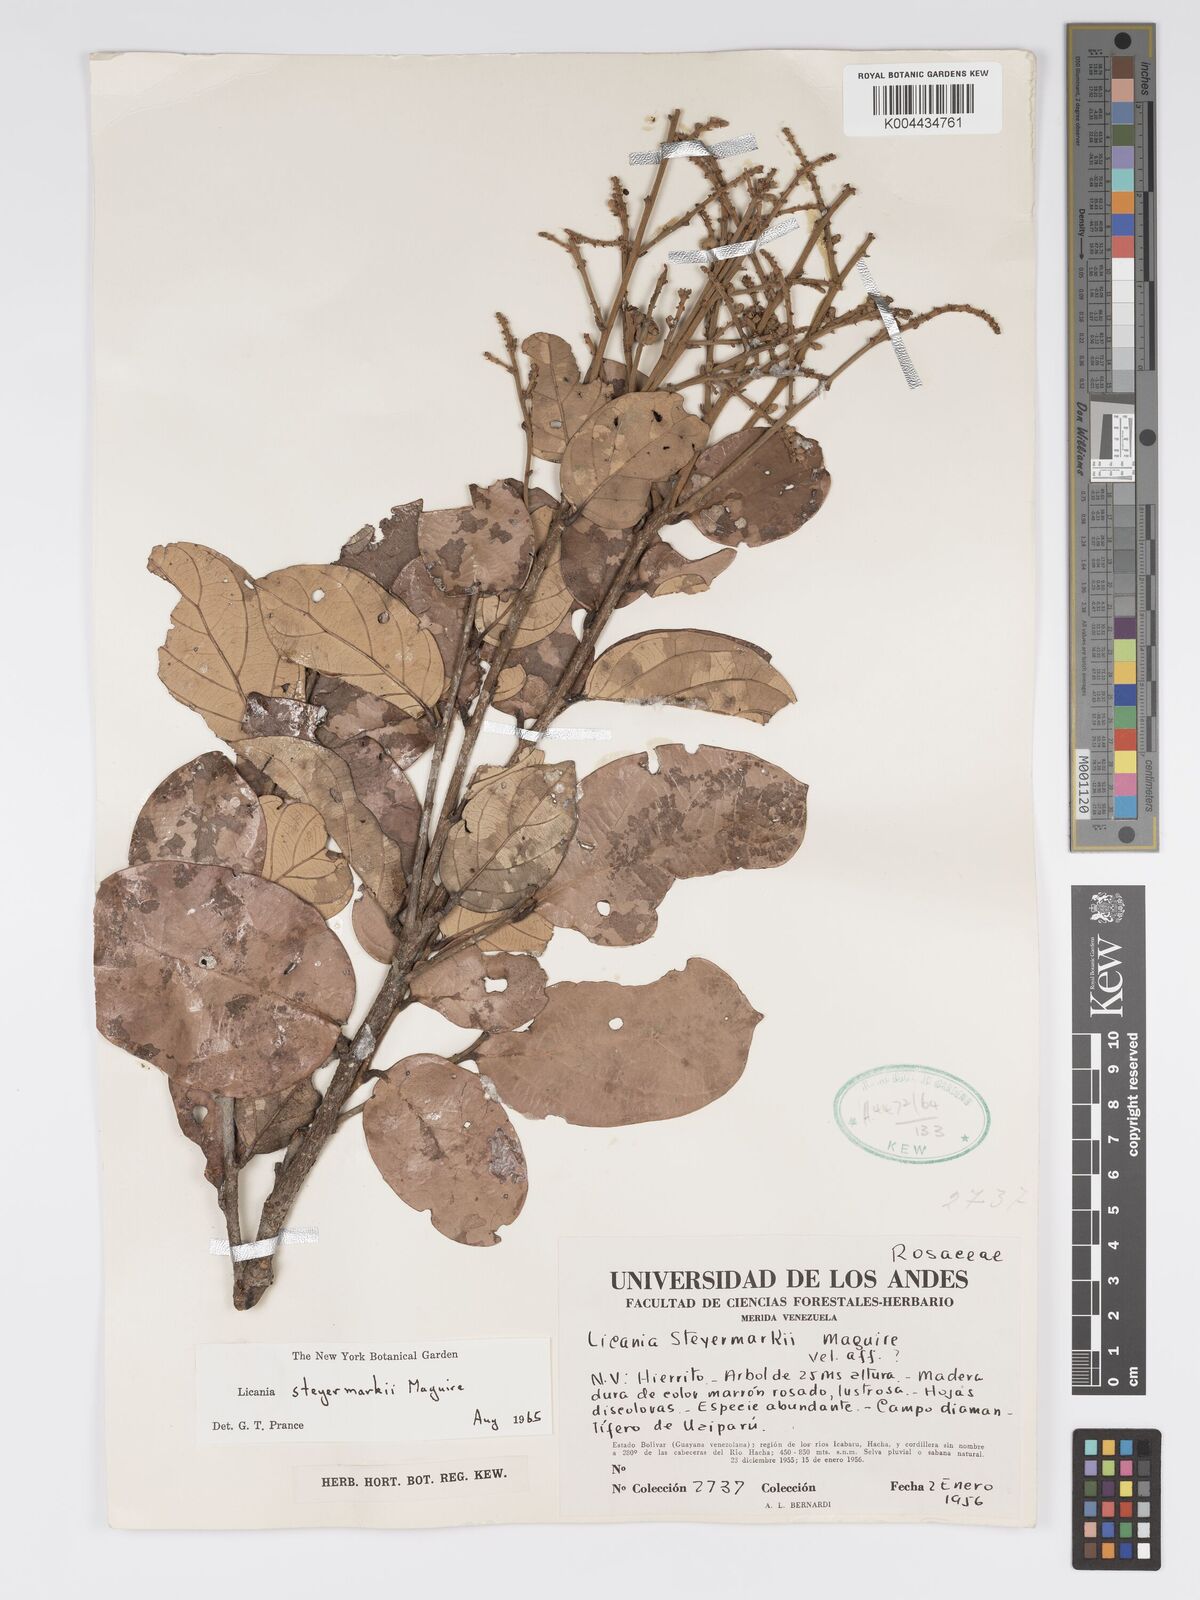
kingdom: Plantae
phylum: Tracheophyta
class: Magnoliopsida
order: Malpighiales
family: Chrysobalanaceae
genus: Licania
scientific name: Licania steyermarkii
